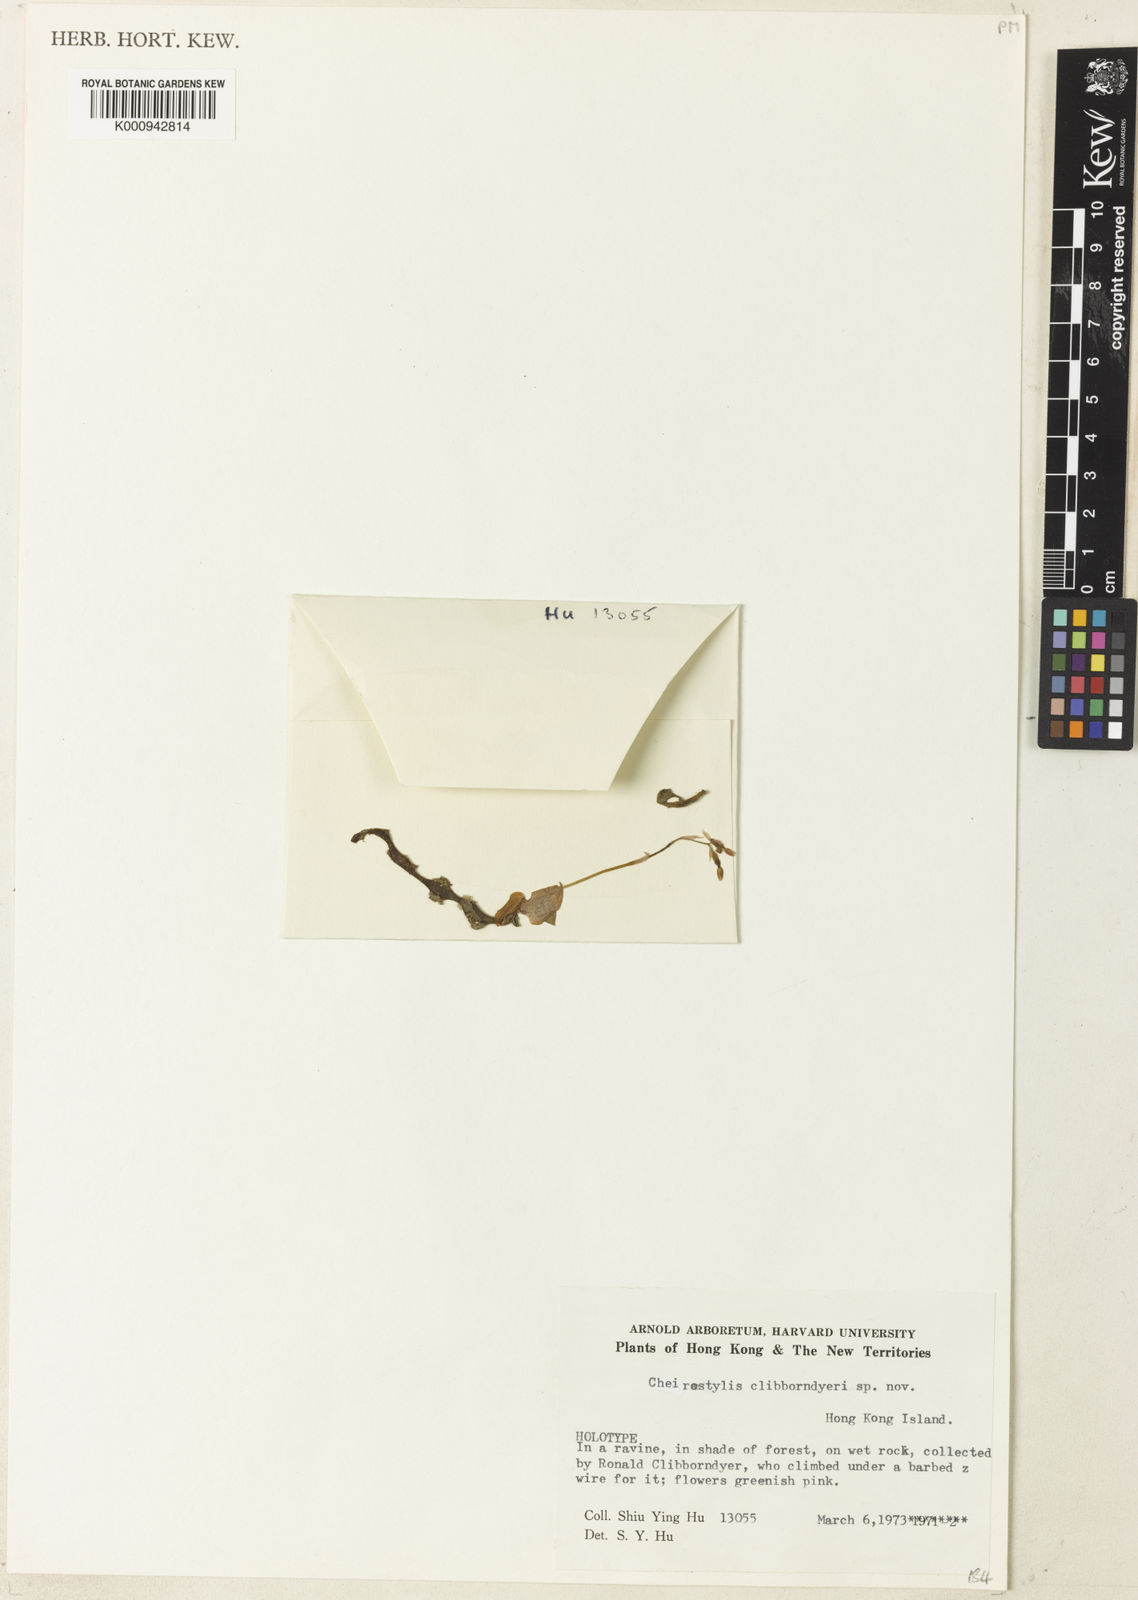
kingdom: Plantae
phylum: Tracheophyta
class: Liliopsida
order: Asparagales
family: Orchidaceae
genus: Cheirostylis
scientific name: Cheirostylis clibborndyeri
